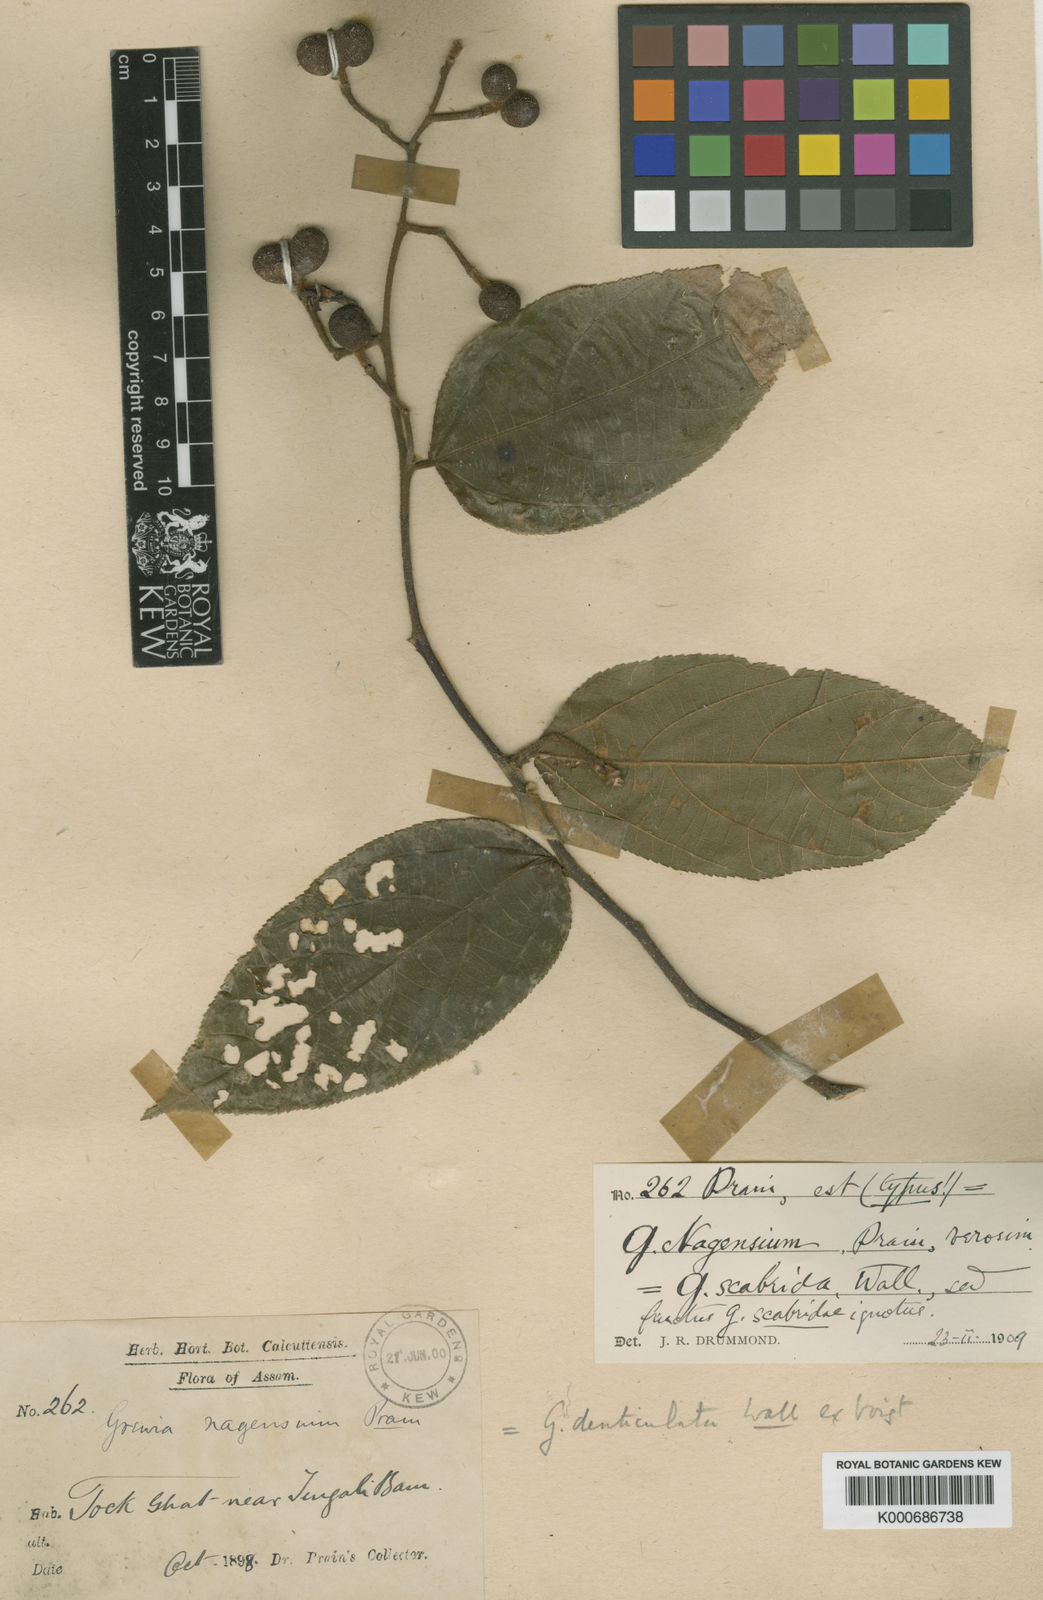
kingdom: Plantae
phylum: Tracheophyta
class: Magnoliopsida
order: Malvales
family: Malvaceae
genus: Grewia
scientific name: Grewia nagensium
